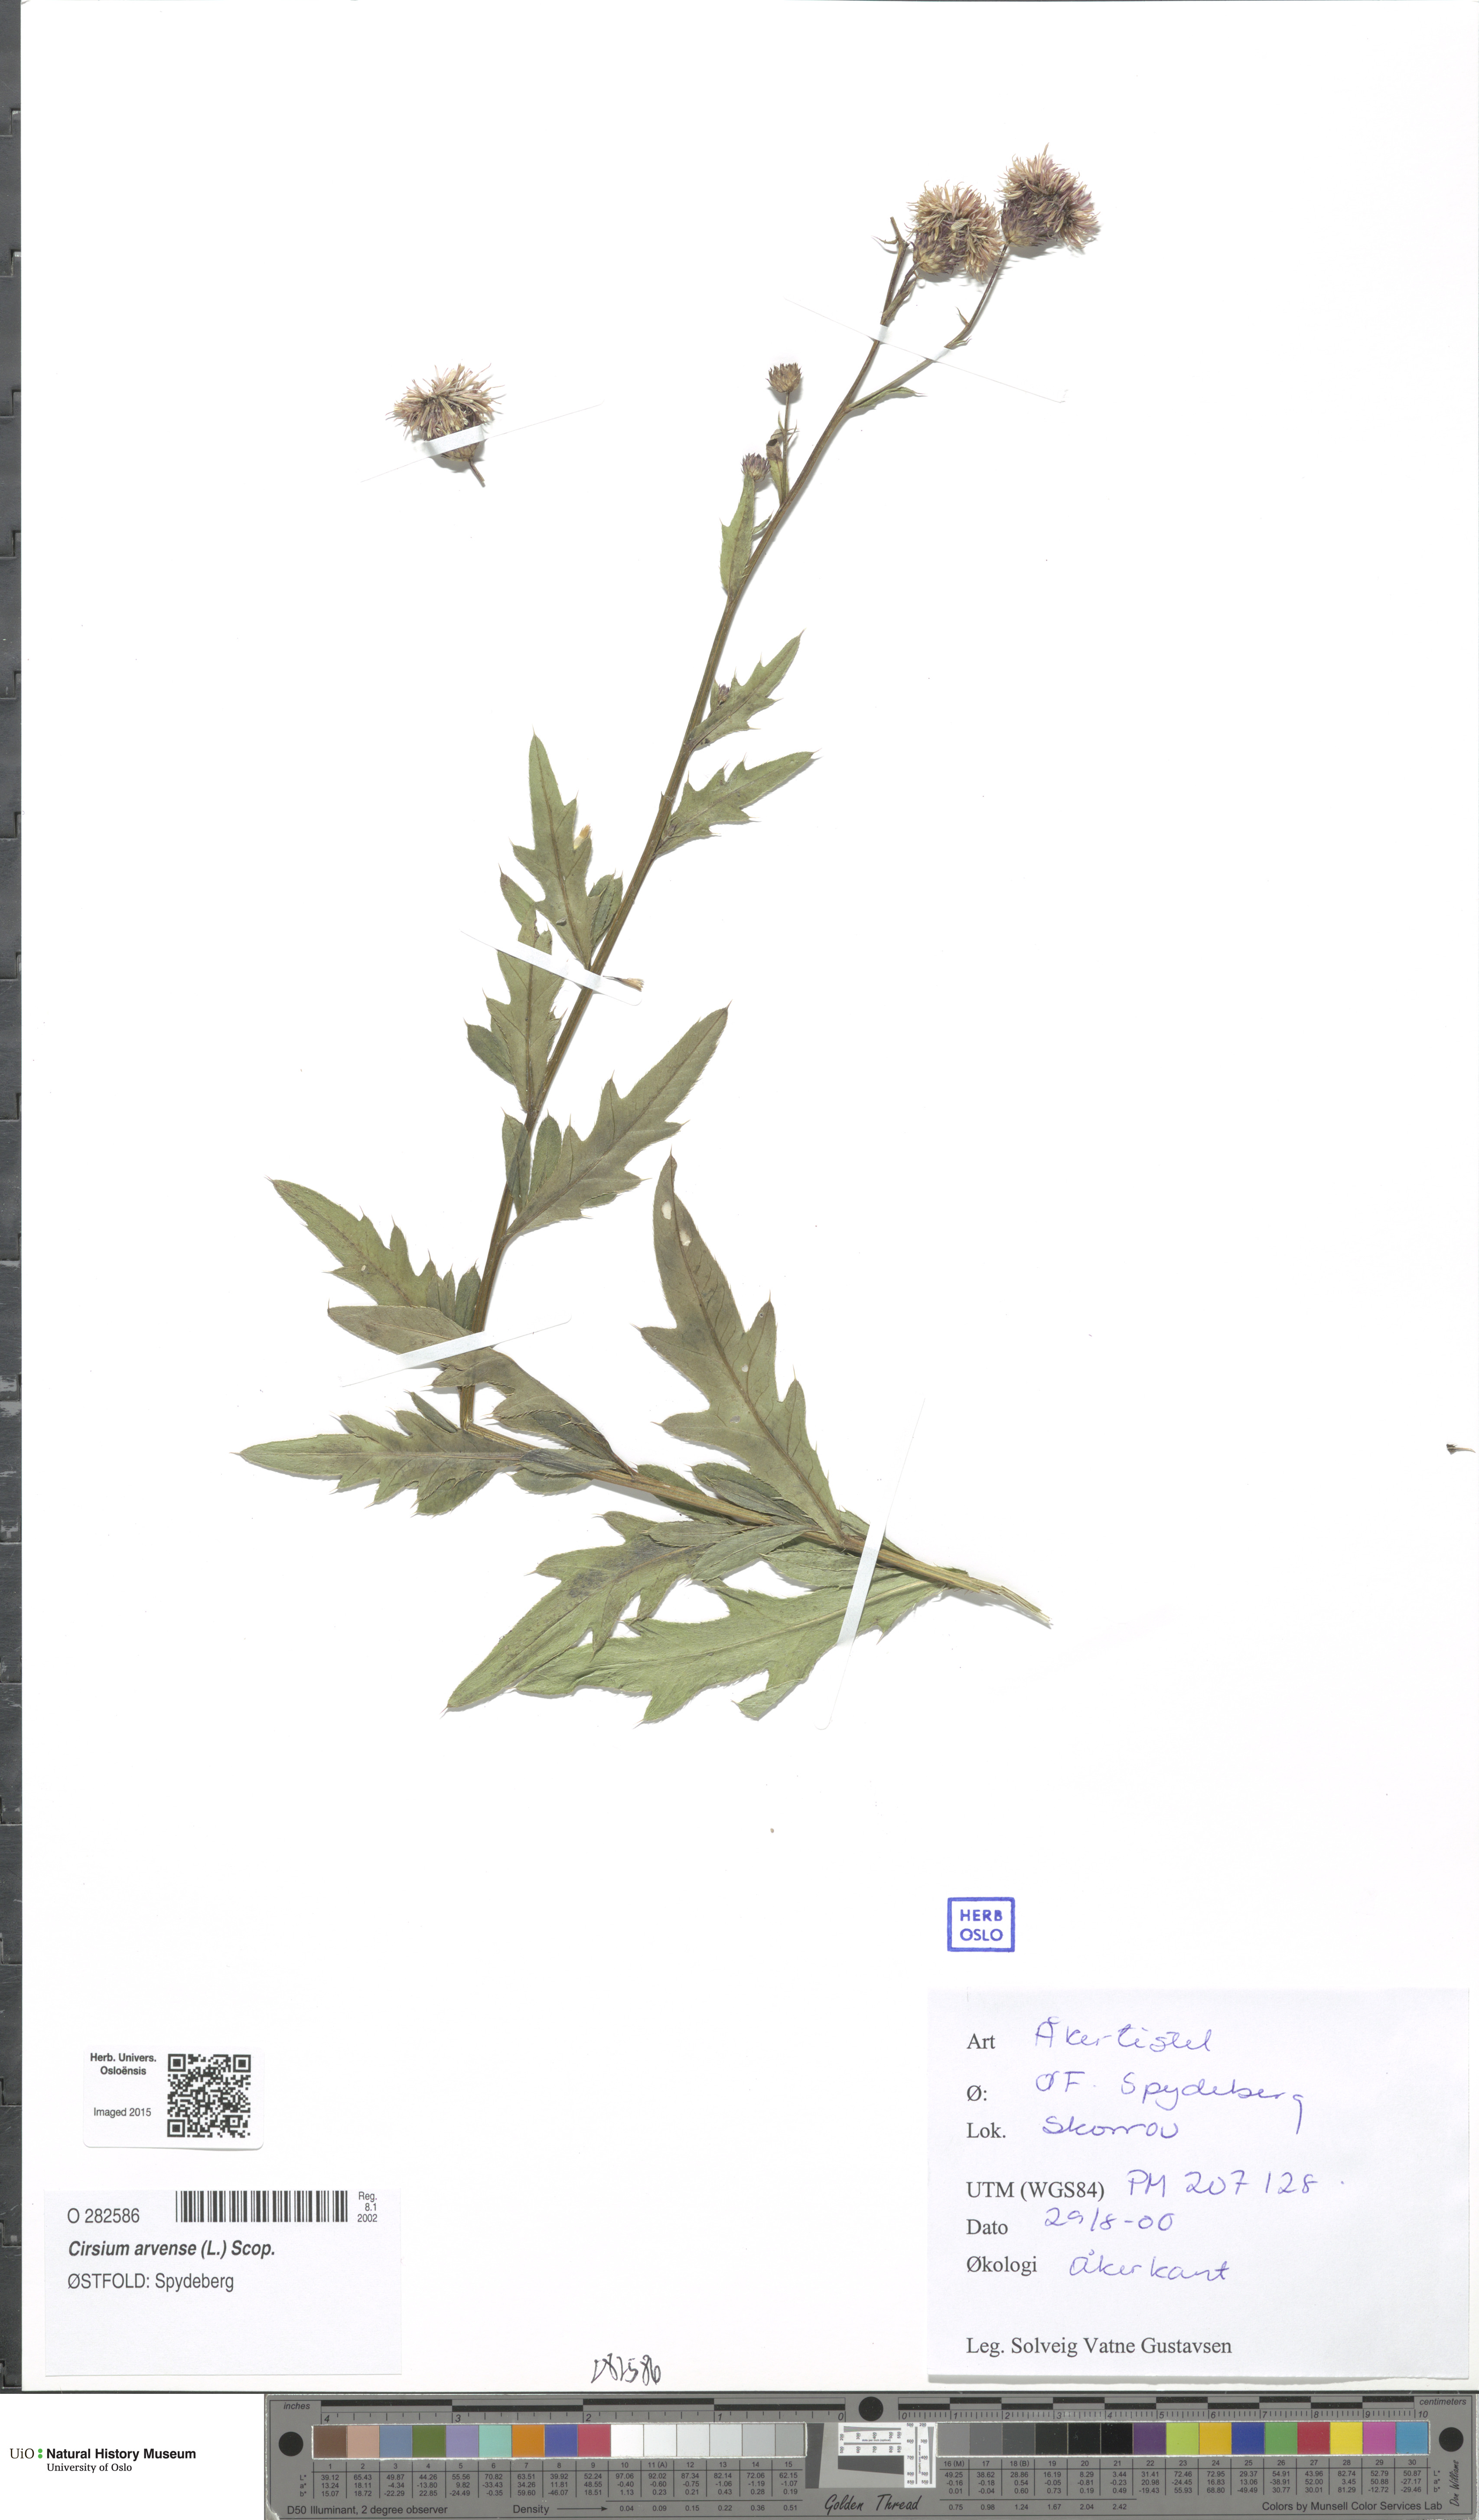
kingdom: Plantae
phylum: Tracheophyta
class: Magnoliopsida
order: Asterales
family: Asteraceae
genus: Cirsium
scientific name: Cirsium arvense
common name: Creeping thistle
